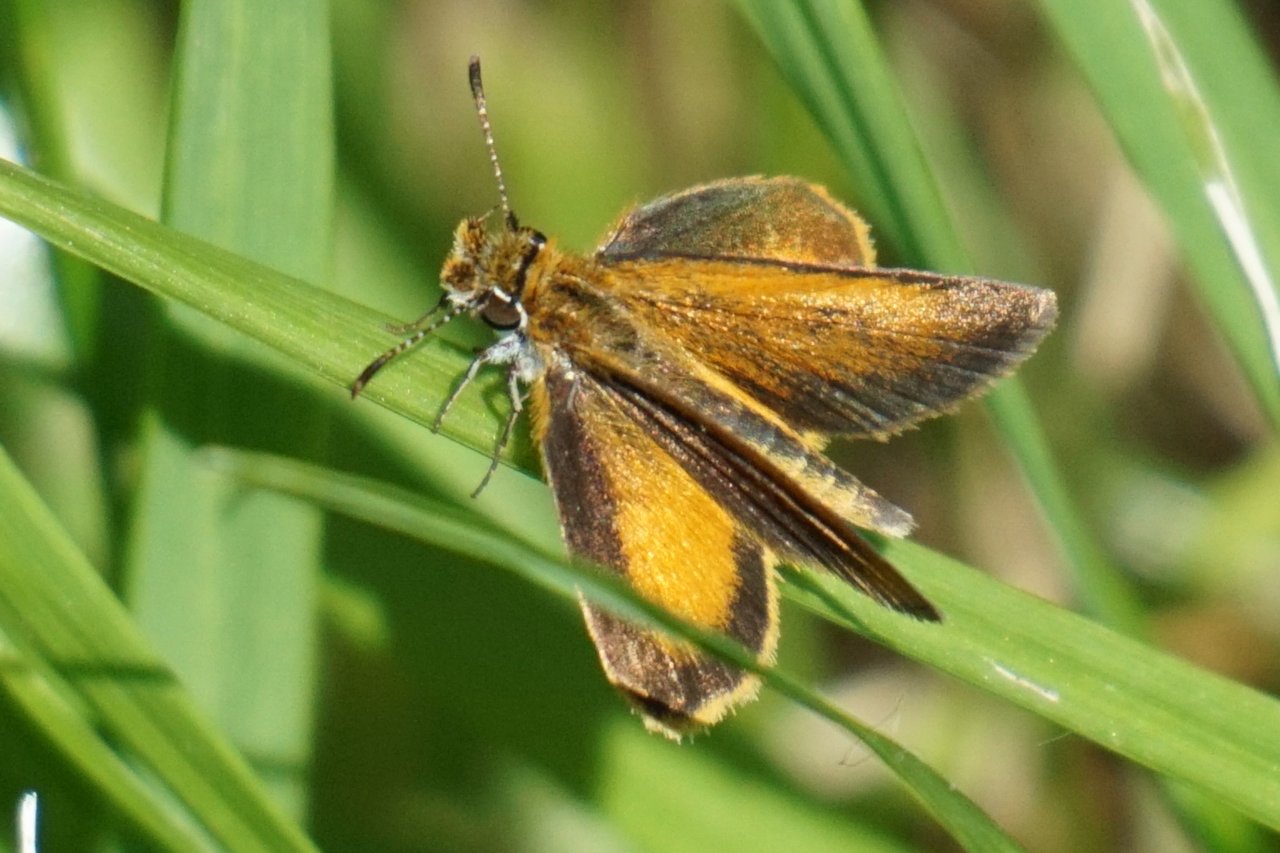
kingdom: Animalia
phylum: Arthropoda
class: Insecta
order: Lepidoptera
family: Hesperiidae
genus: Ancyloxypha
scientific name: Ancyloxypha numitor
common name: Least Skipper
